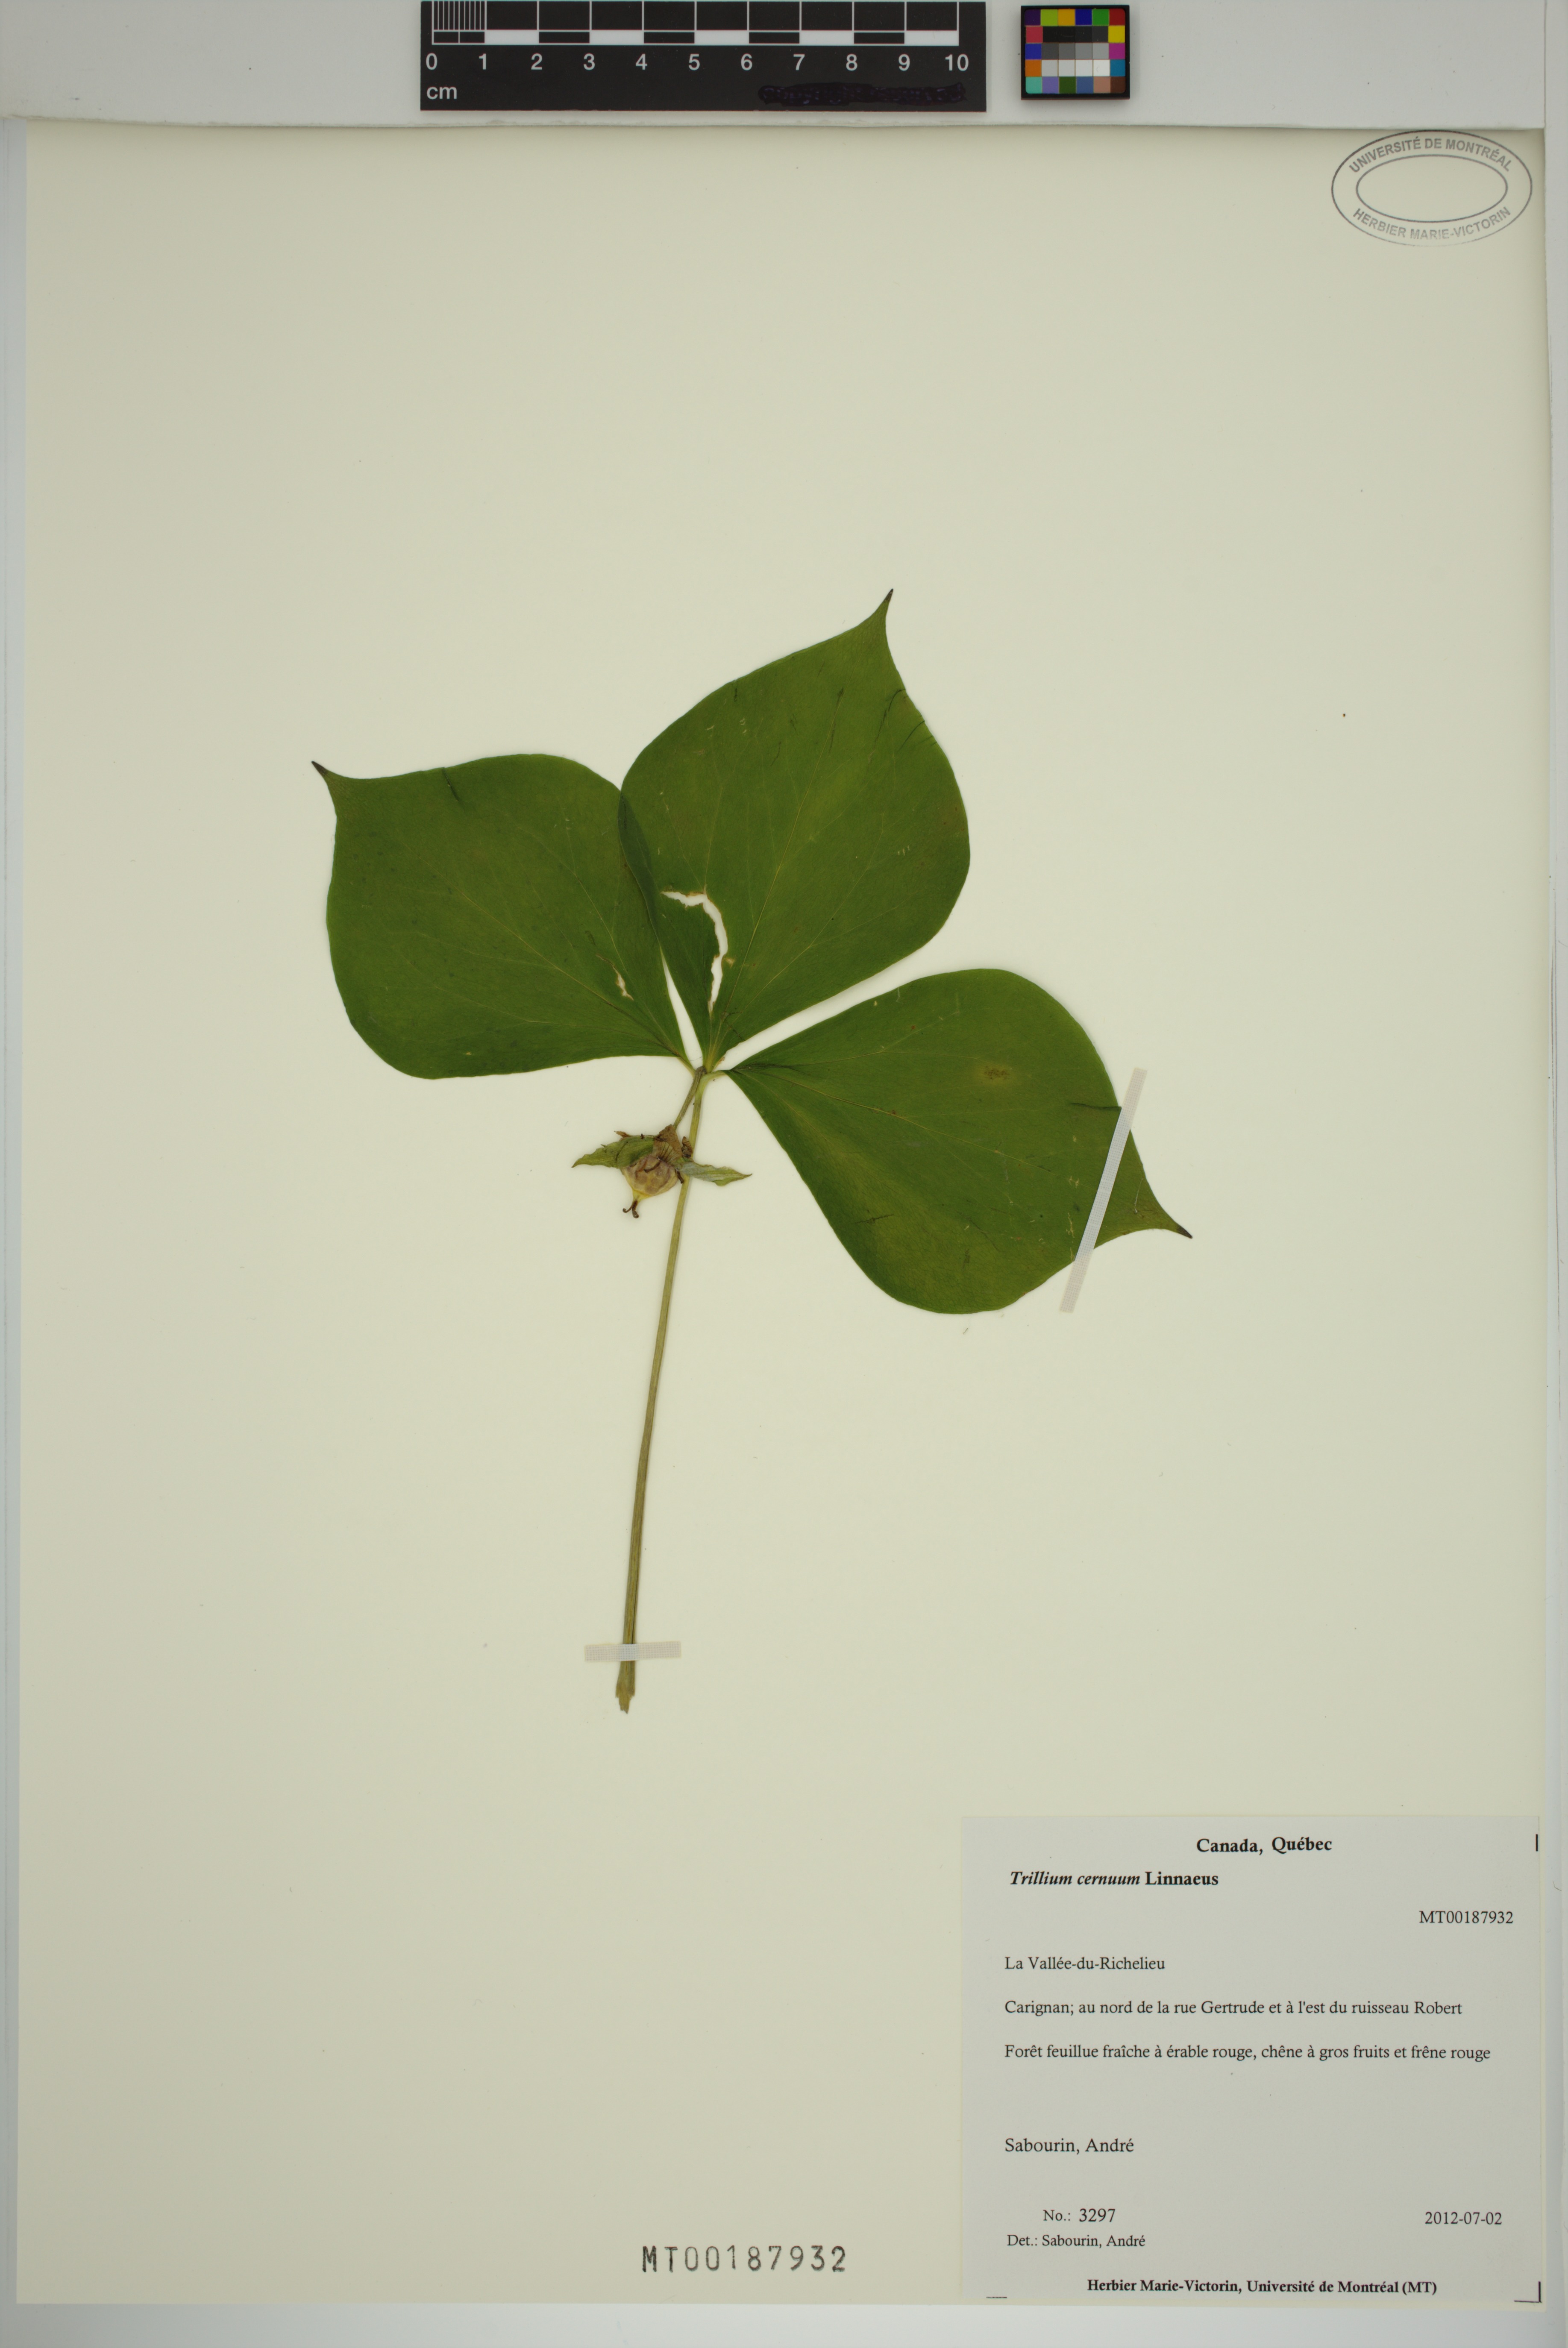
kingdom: Plantae
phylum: Tracheophyta
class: Liliopsida
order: Liliales
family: Melanthiaceae
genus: Trillium
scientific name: Trillium cernuum
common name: Nodding trillium
